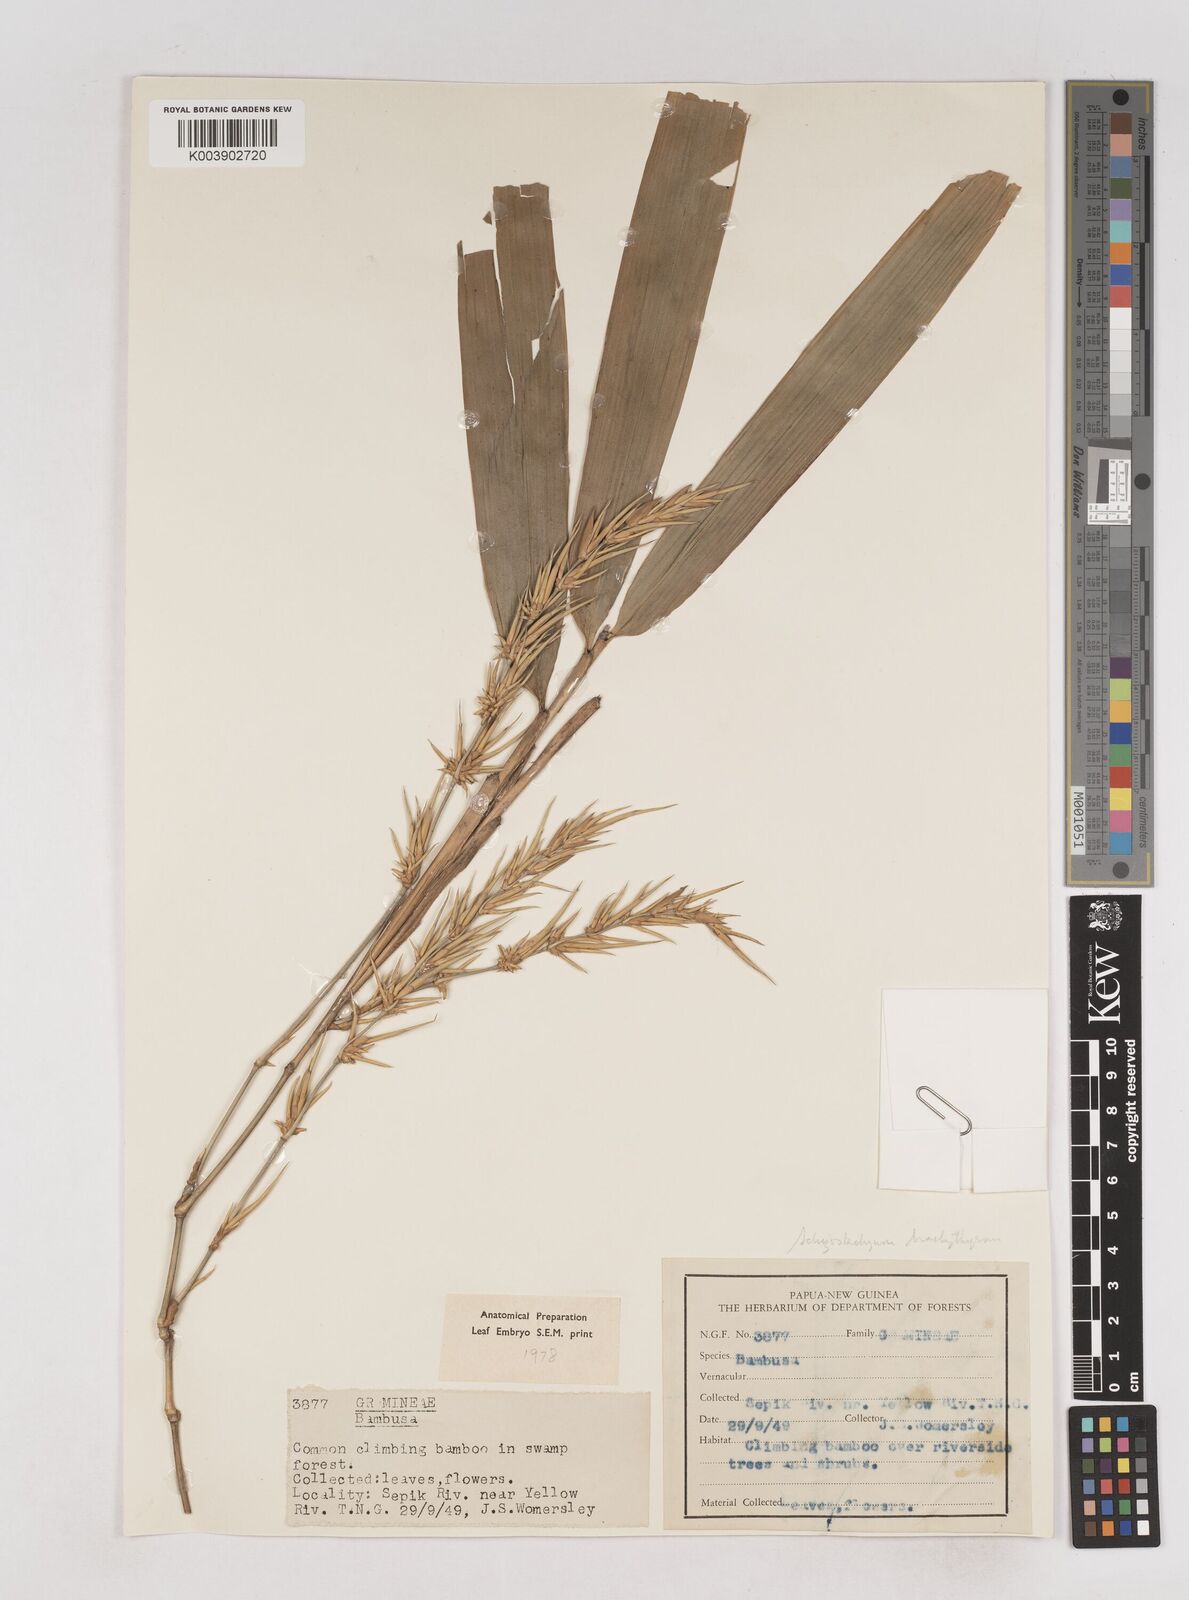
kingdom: Plantae
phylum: Tracheophyta
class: Liliopsida
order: Poales
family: Poaceae
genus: Schizostachyum
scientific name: Schizostachyum brachythyrsus
